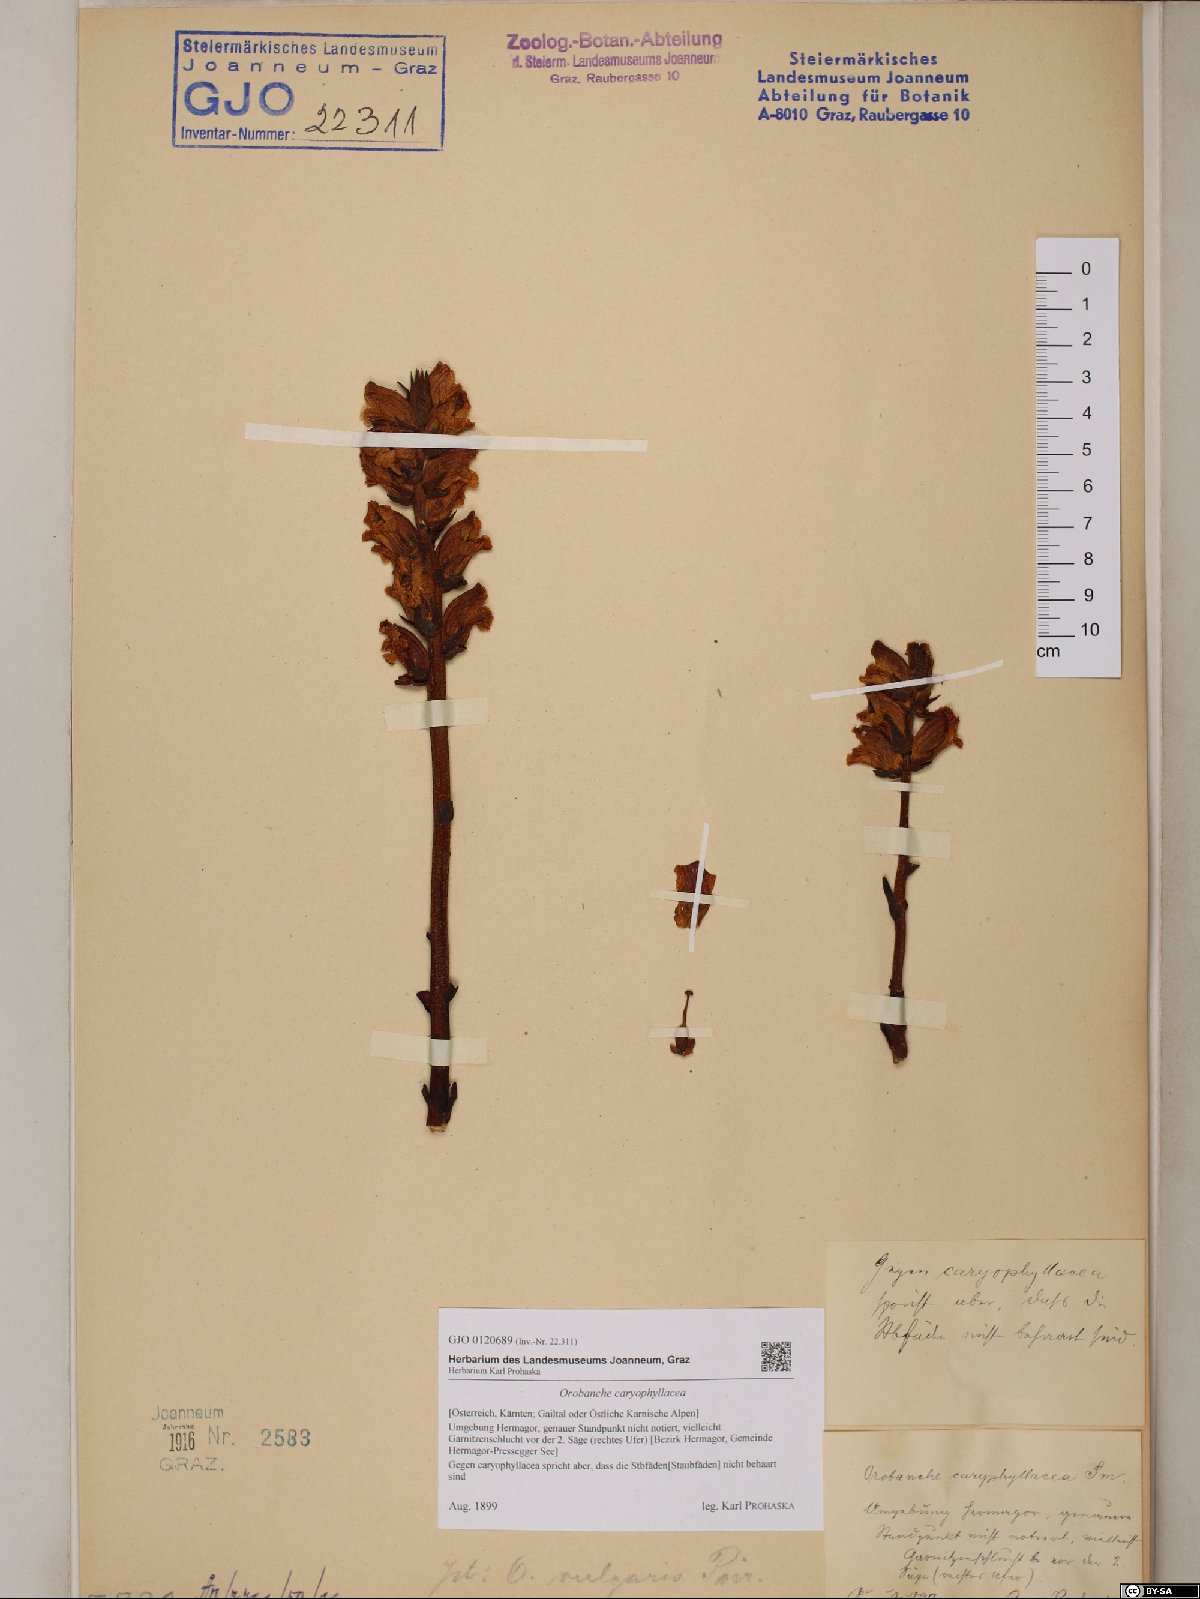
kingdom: Plantae
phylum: Tracheophyta
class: Magnoliopsida
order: Lamiales
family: Orobanchaceae
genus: Orobanche
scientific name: Orobanche caryophyllacea
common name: Bedstraw broomrape
